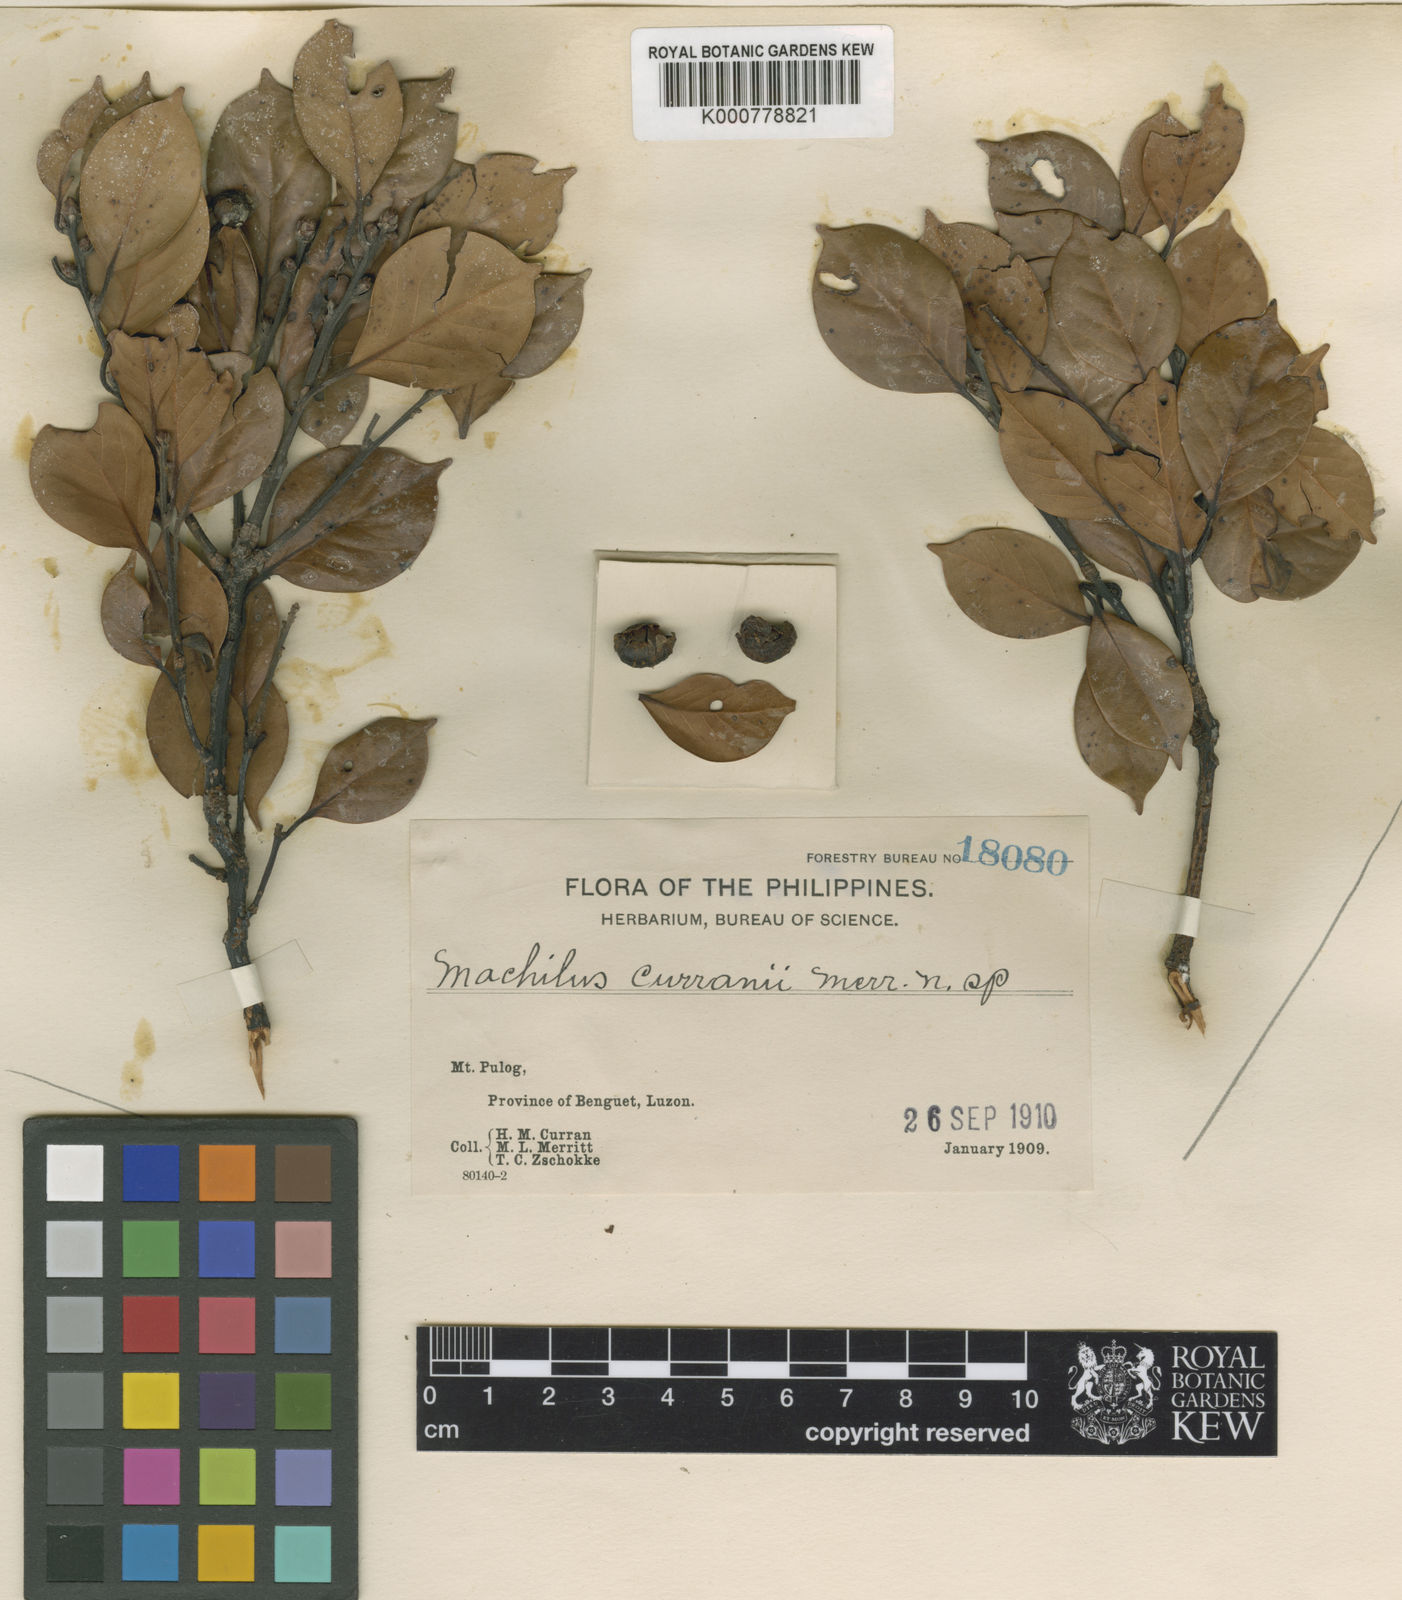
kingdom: Plantae
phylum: Tracheophyta
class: Magnoliopsida
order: Laurales
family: Lauraceae
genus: Machilus
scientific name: Machilus curranii
